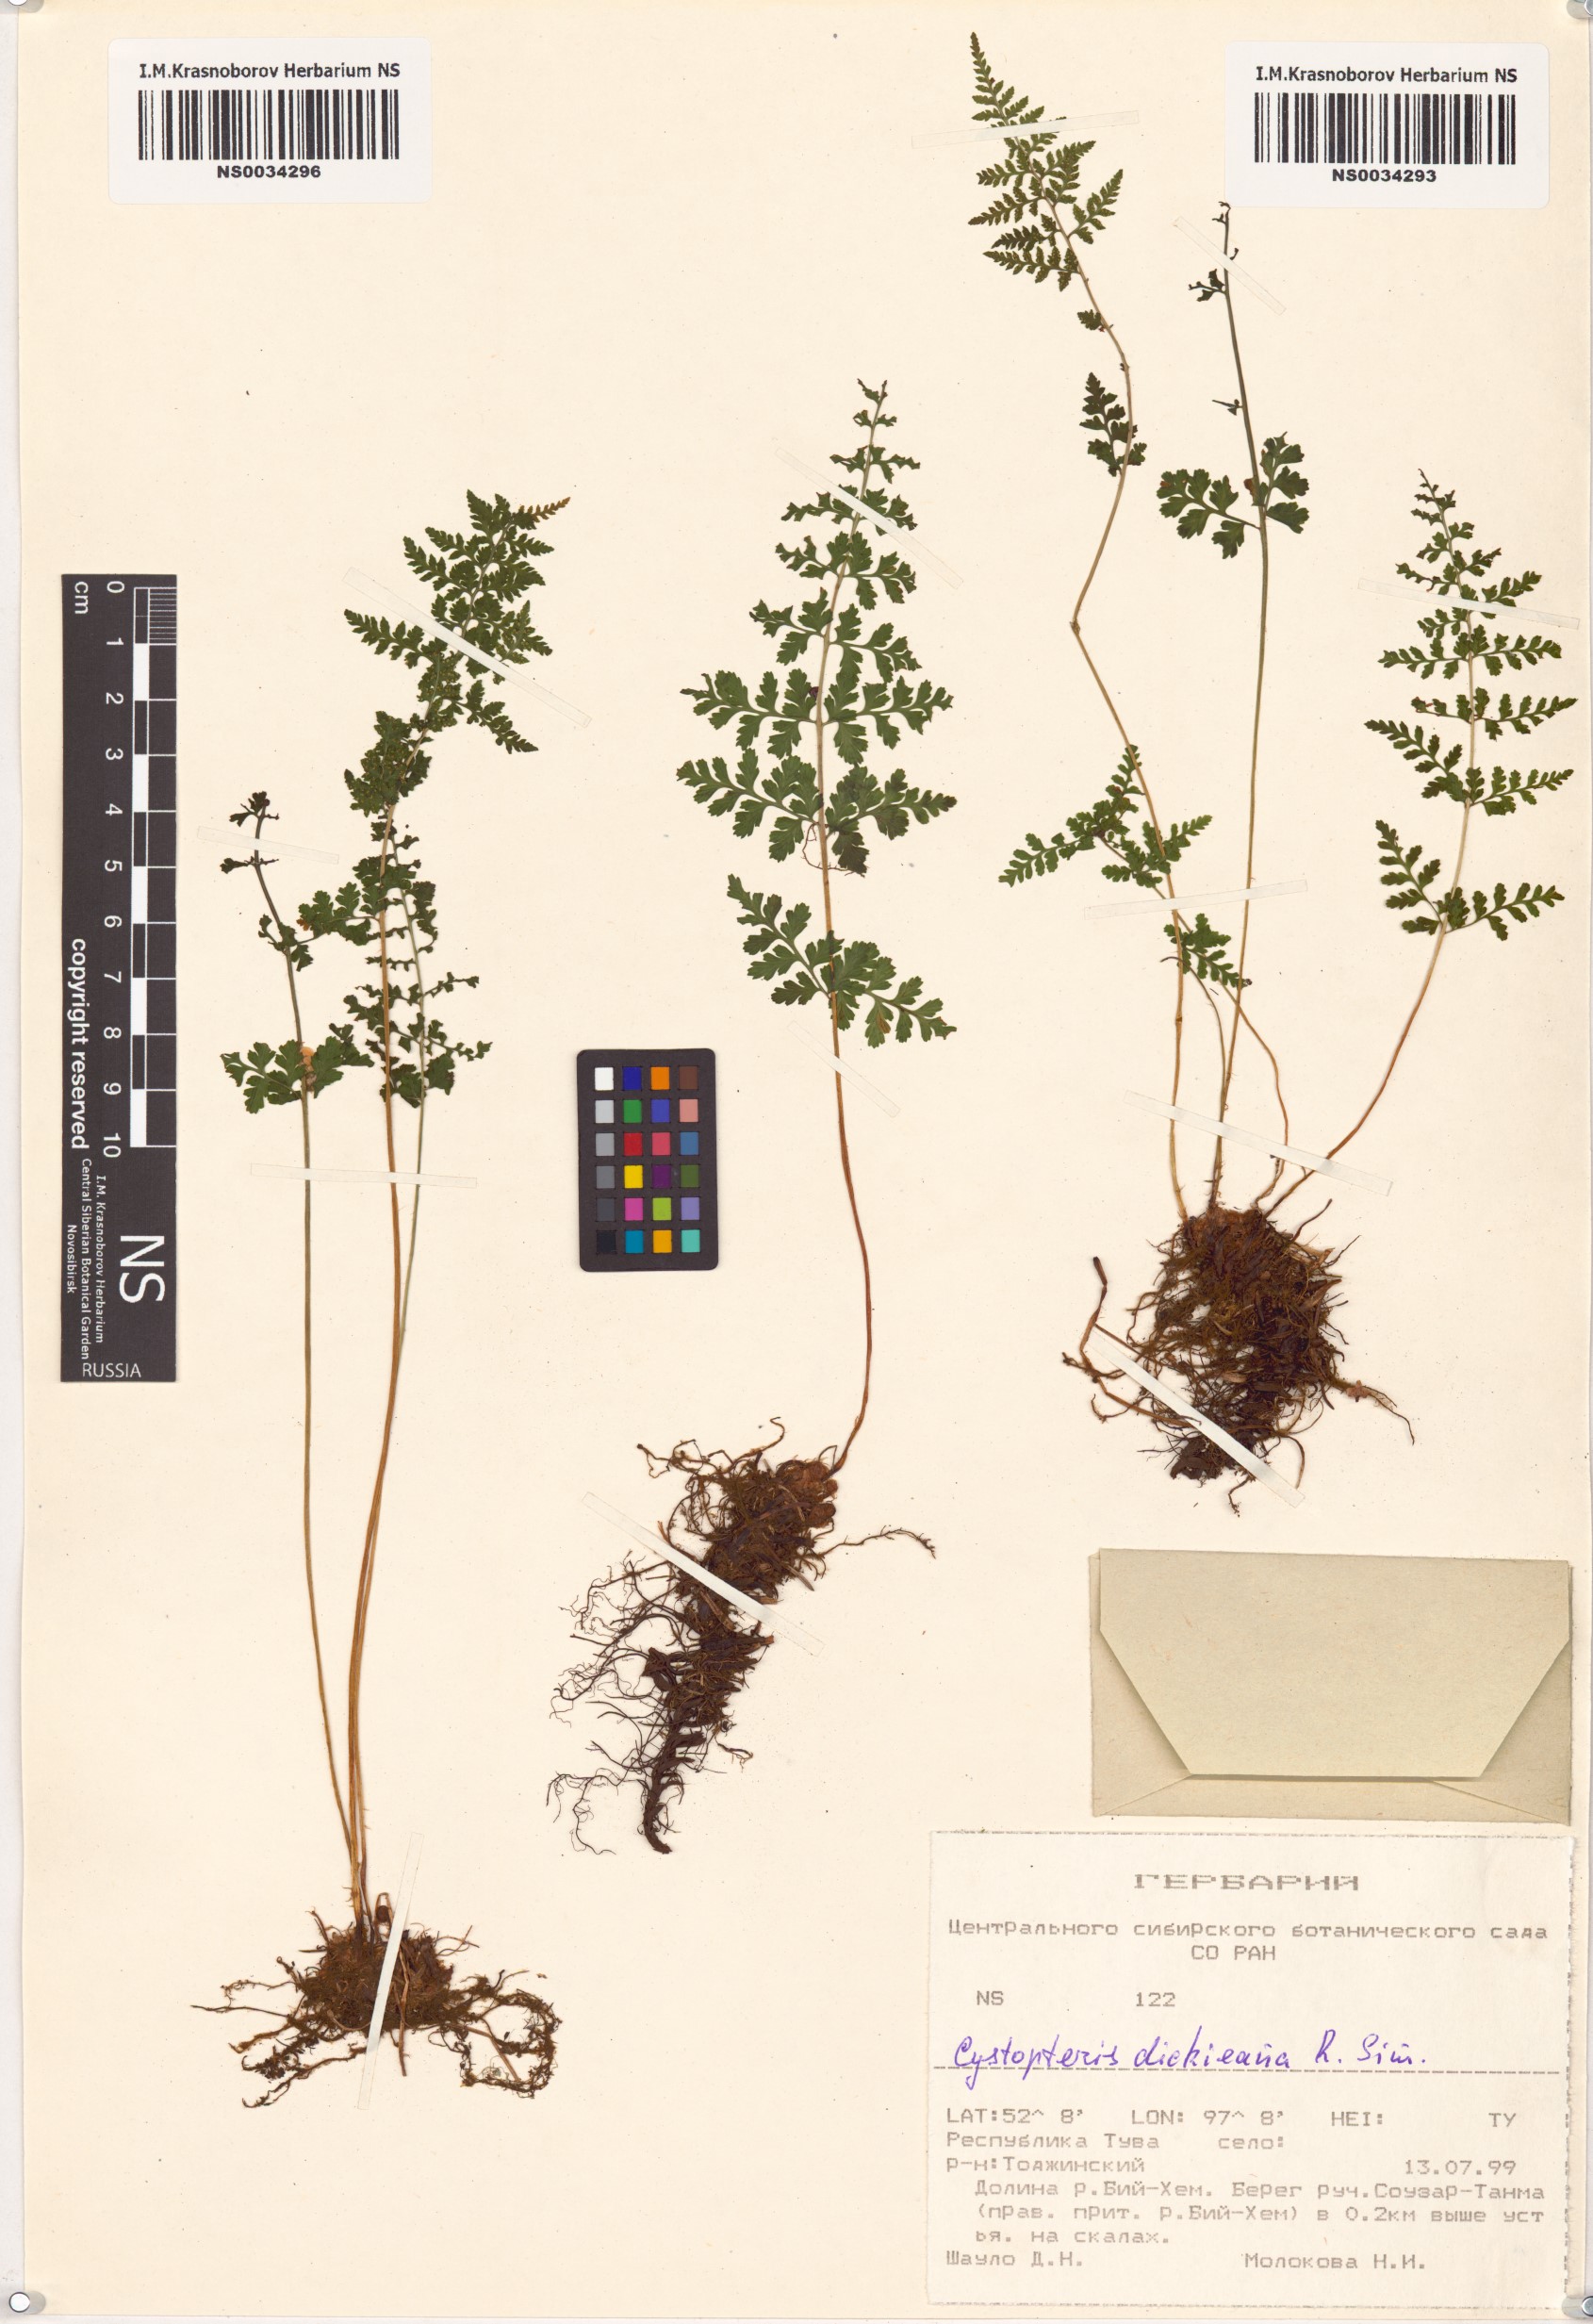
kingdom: Plantae
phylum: Tracheophyta
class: Polypodiopsida
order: Polypodiales
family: Cystopteridaceae
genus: Cystopteris
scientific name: Cystopteris dickieana
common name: Dickie's bladder-fern
